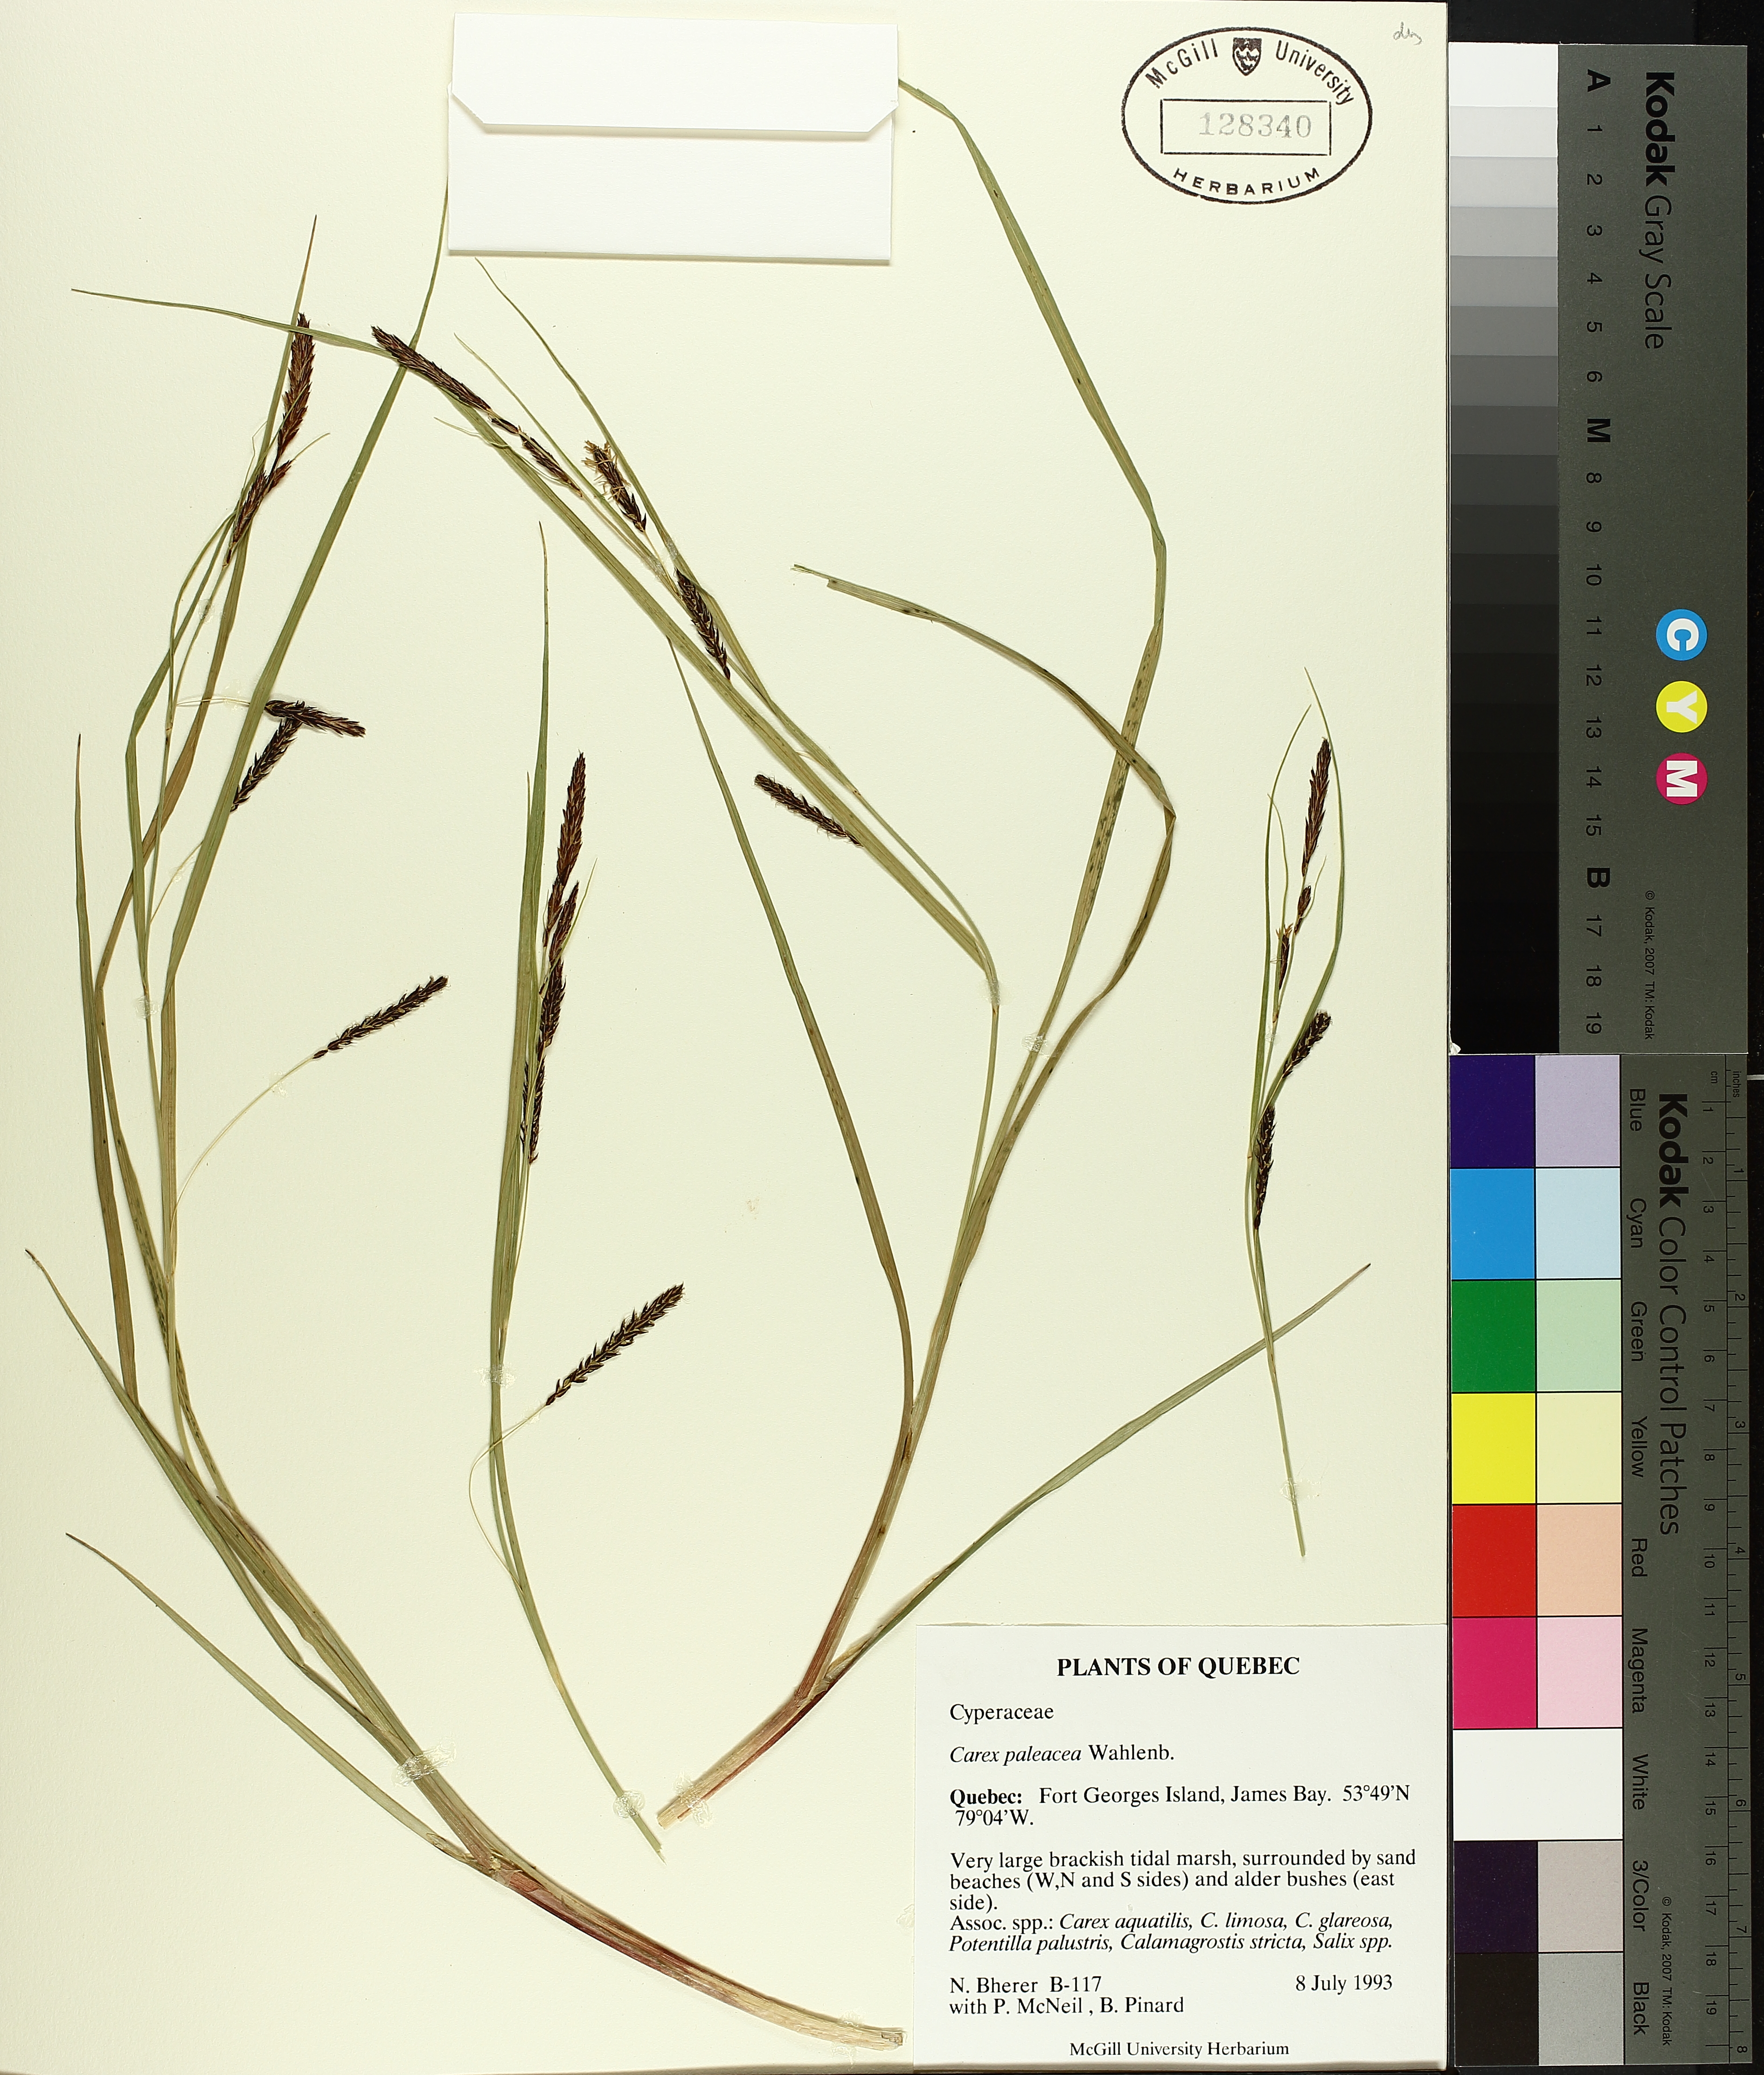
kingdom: Plantae
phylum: Tracheophyta
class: Liliopsida
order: Poales
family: Cyperaceae
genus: Carex
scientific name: Carex paleacea
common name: Chaffy sedge
